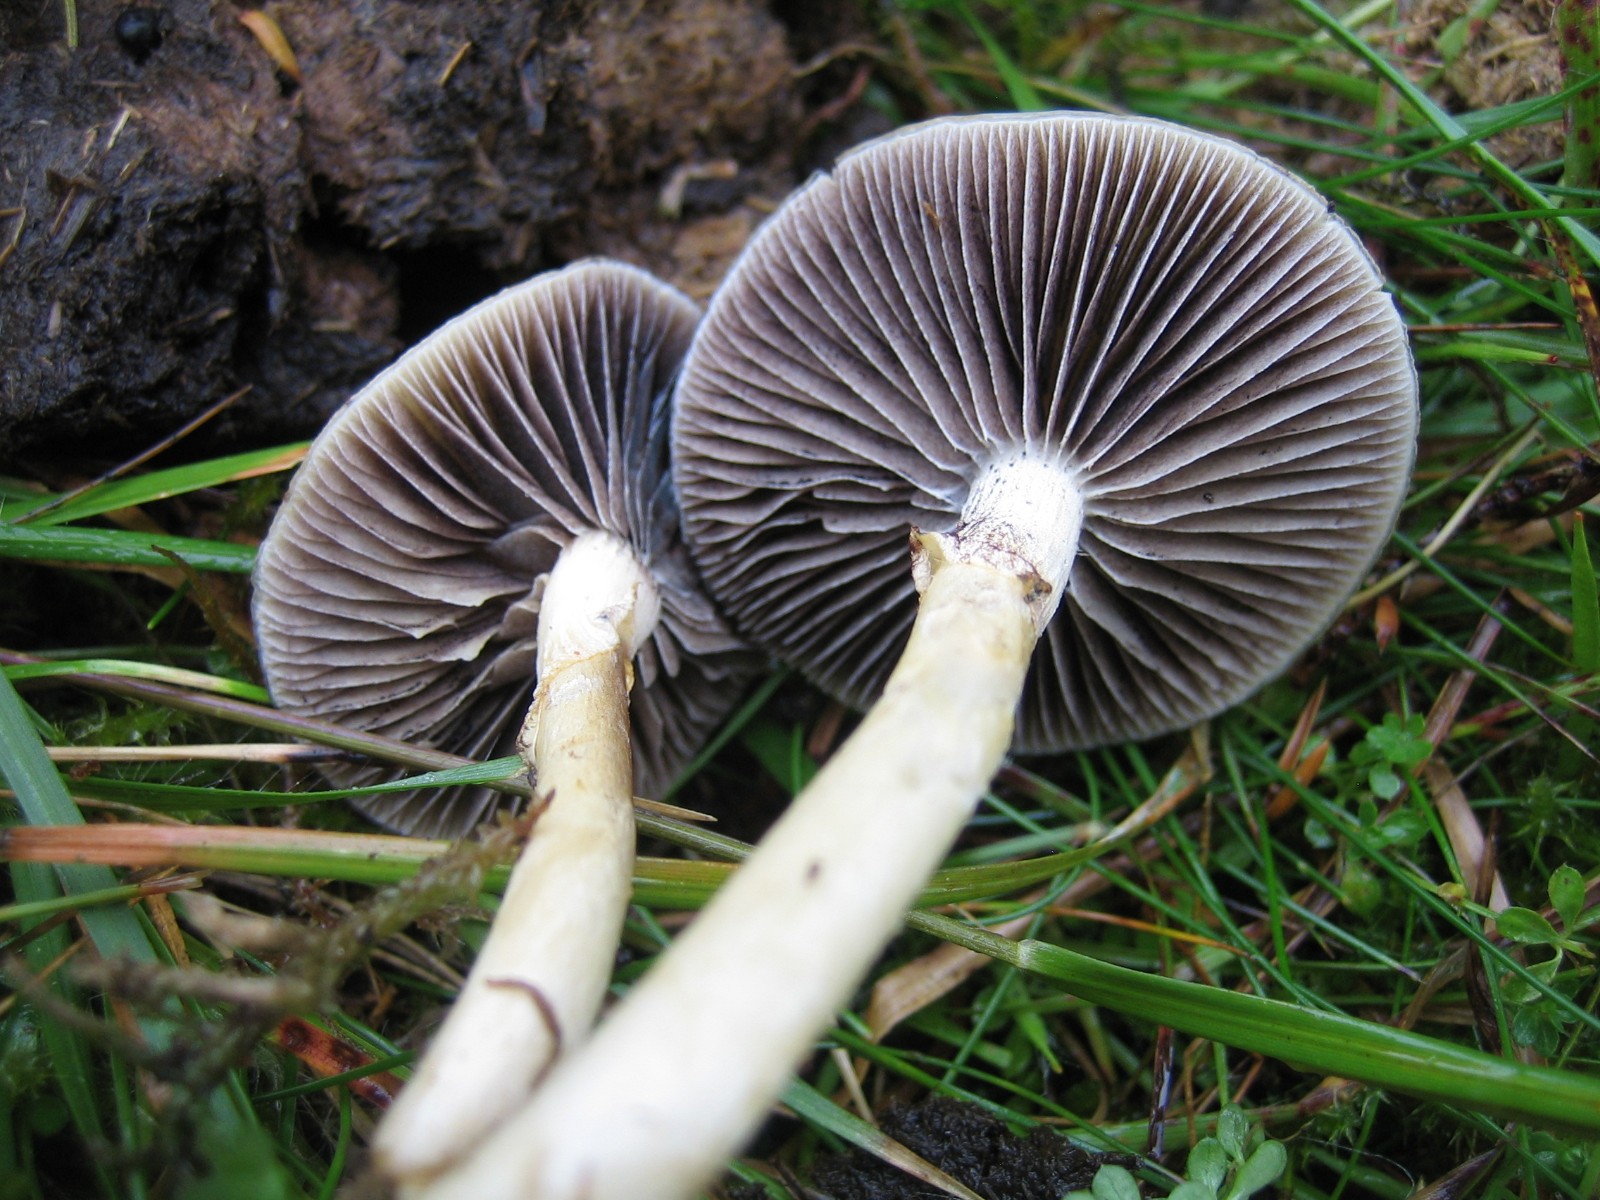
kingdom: Fungi
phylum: Basidiomycota
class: Agaricomycetes
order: Agaricales
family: Strophariaceae
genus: Protostropharia
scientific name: Protostropharia semiglobata
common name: halvkugleformet bredblad
